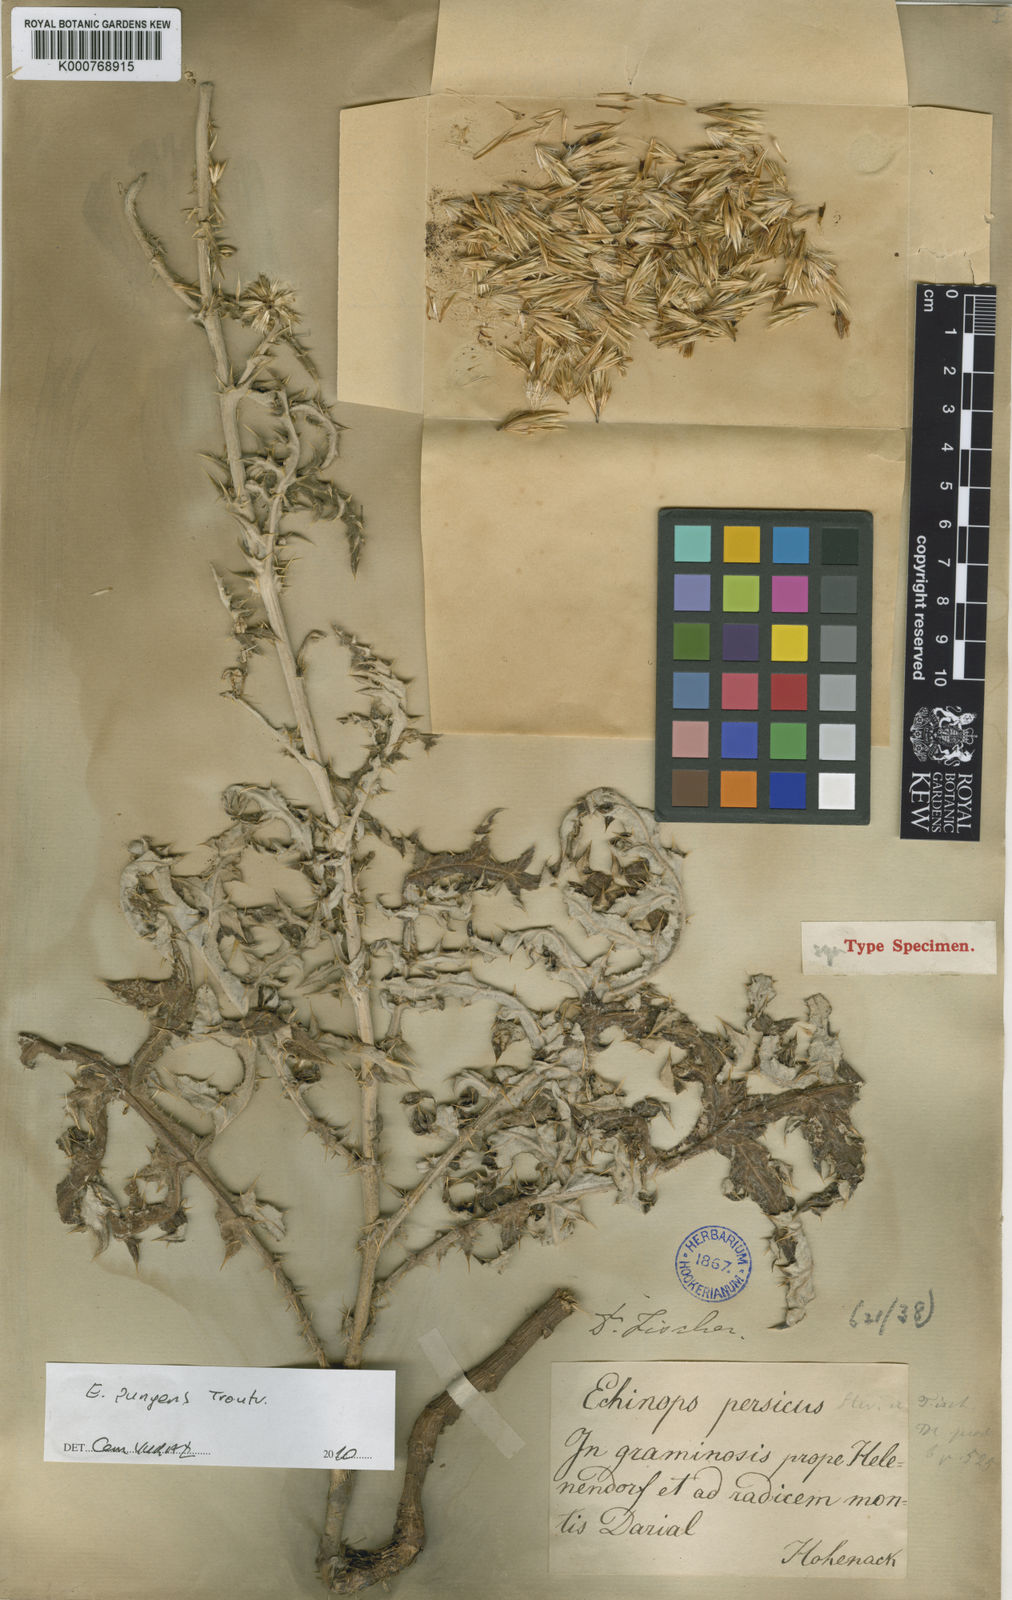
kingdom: Plantae
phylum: Tracheophyta
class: Magnoliopsida
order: Asterales
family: Asteraceae
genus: Echinops
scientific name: Echinops pungens
